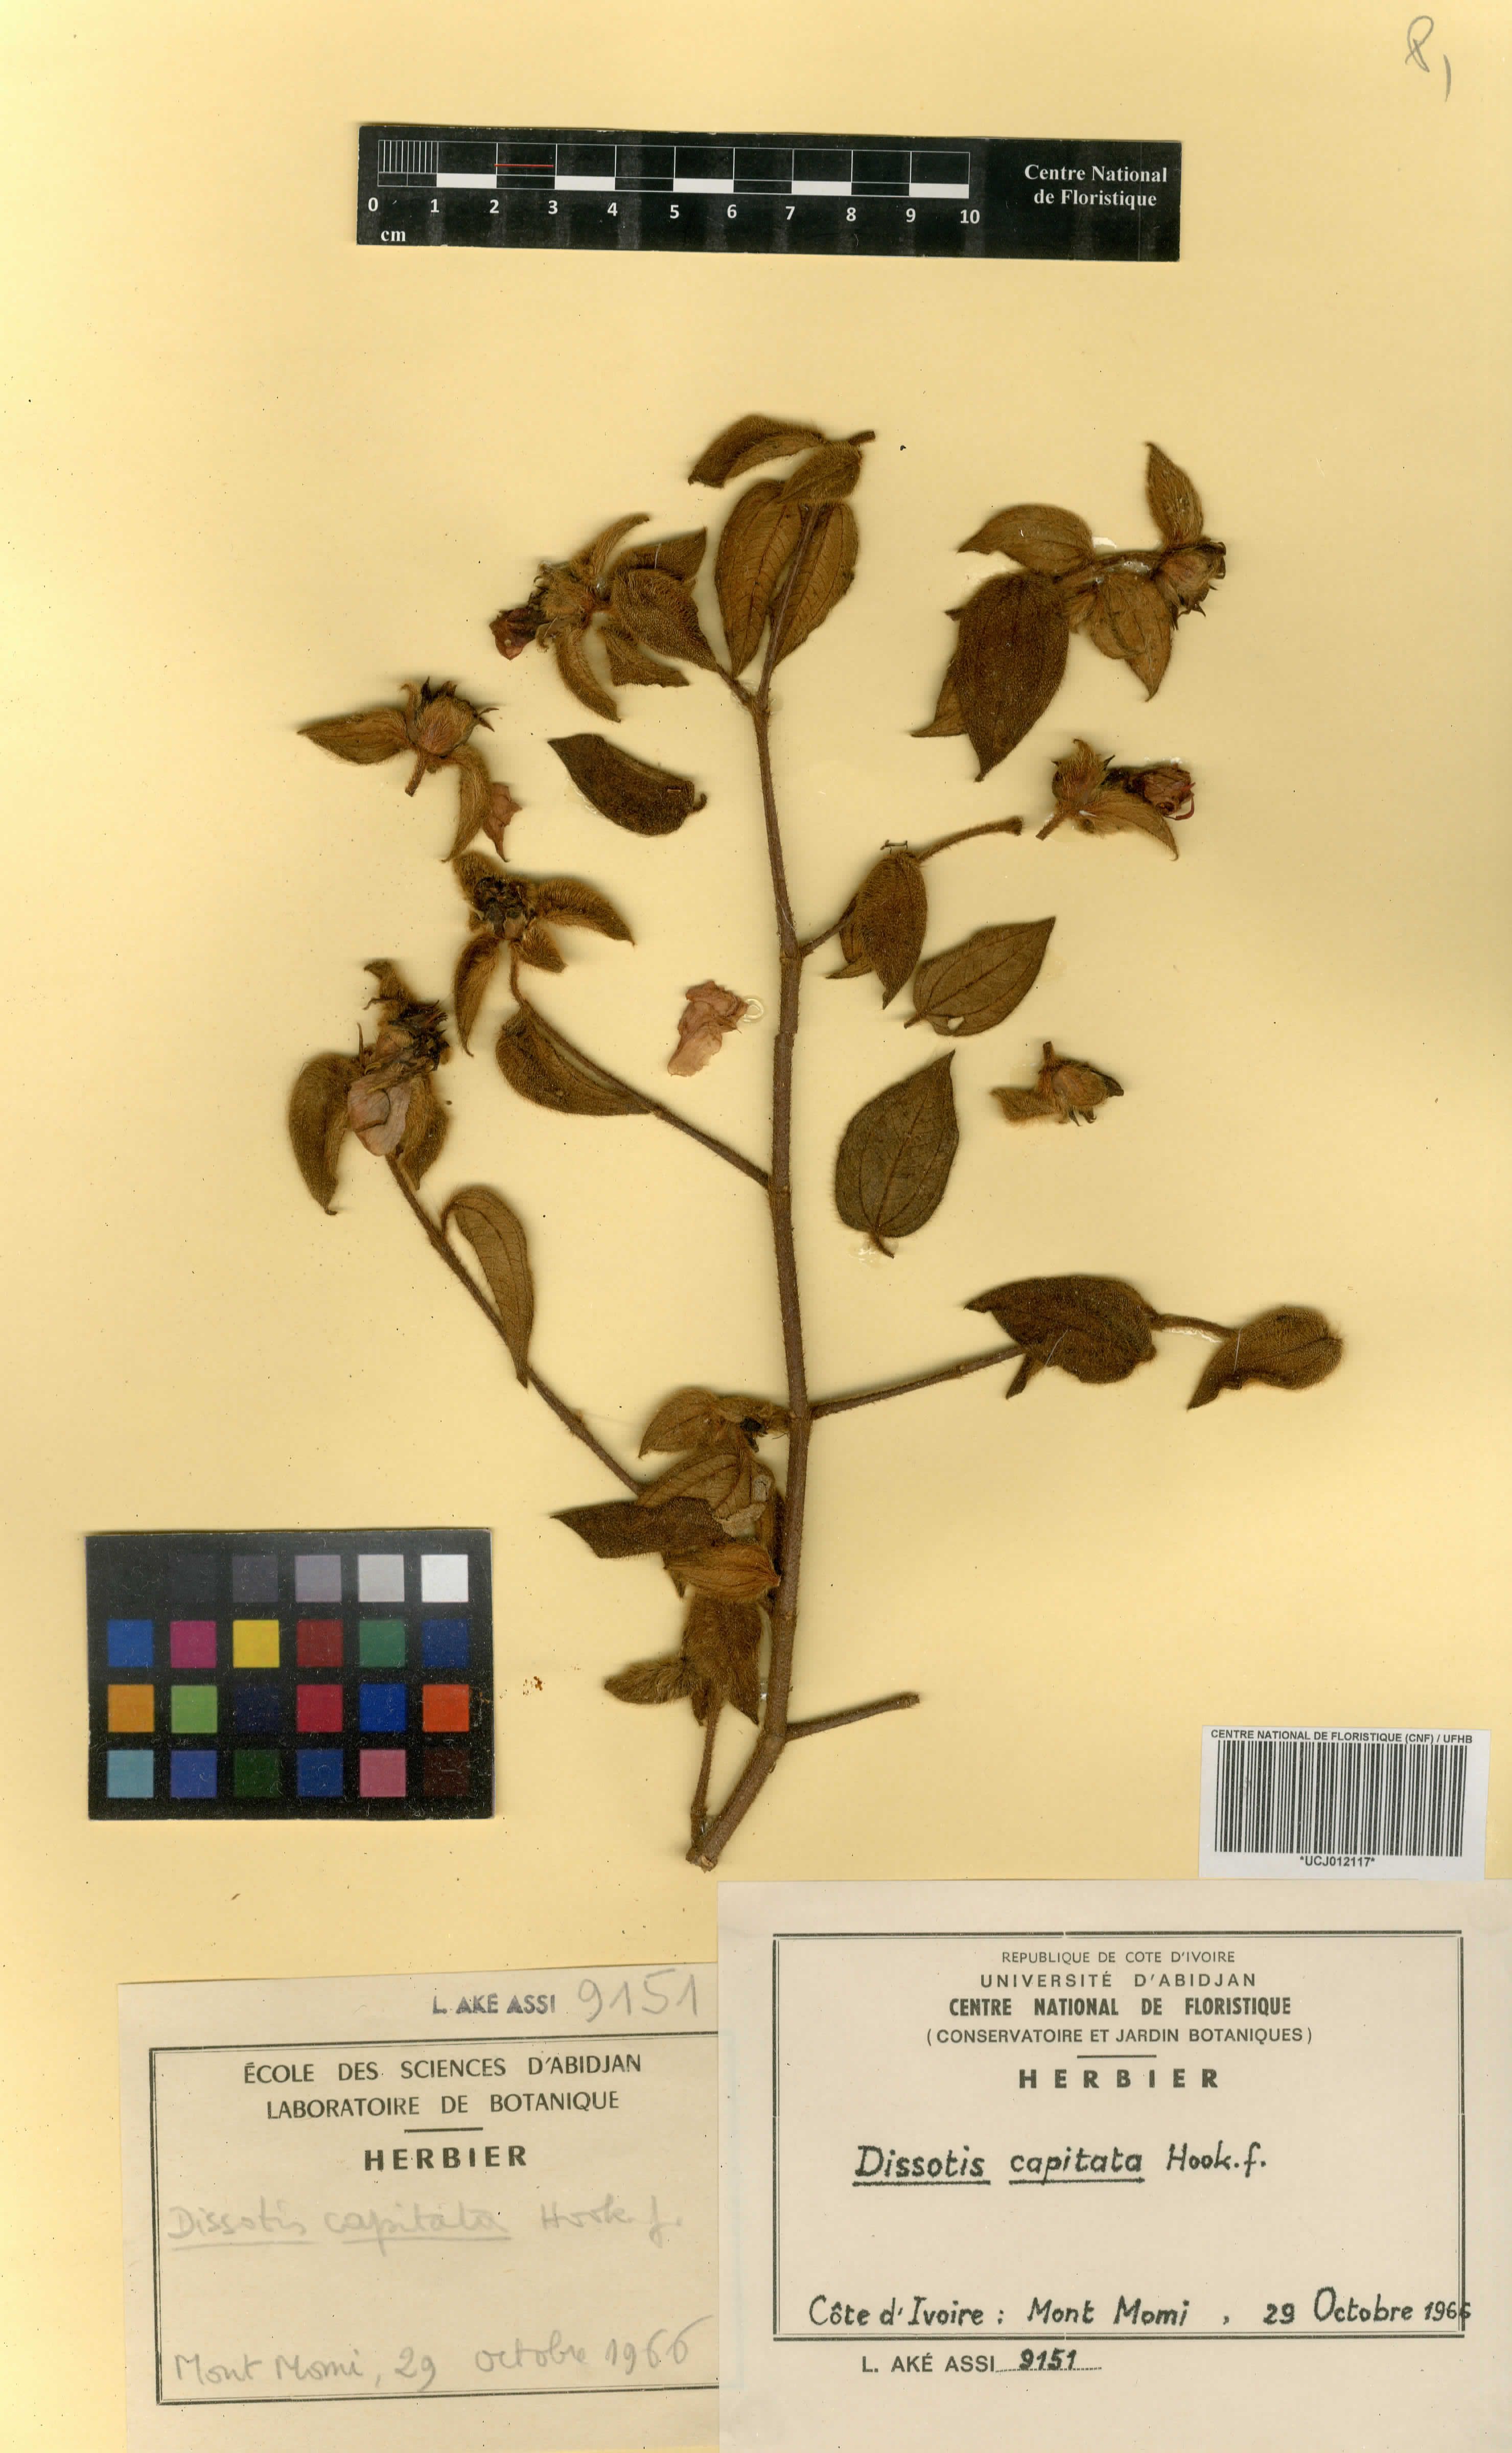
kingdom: Plantae
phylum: Tracheophyta
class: Magnoliopsida
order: Myrtales
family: Melastomataceae
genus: Melastomastrum
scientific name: Melastomastrum capitatum
